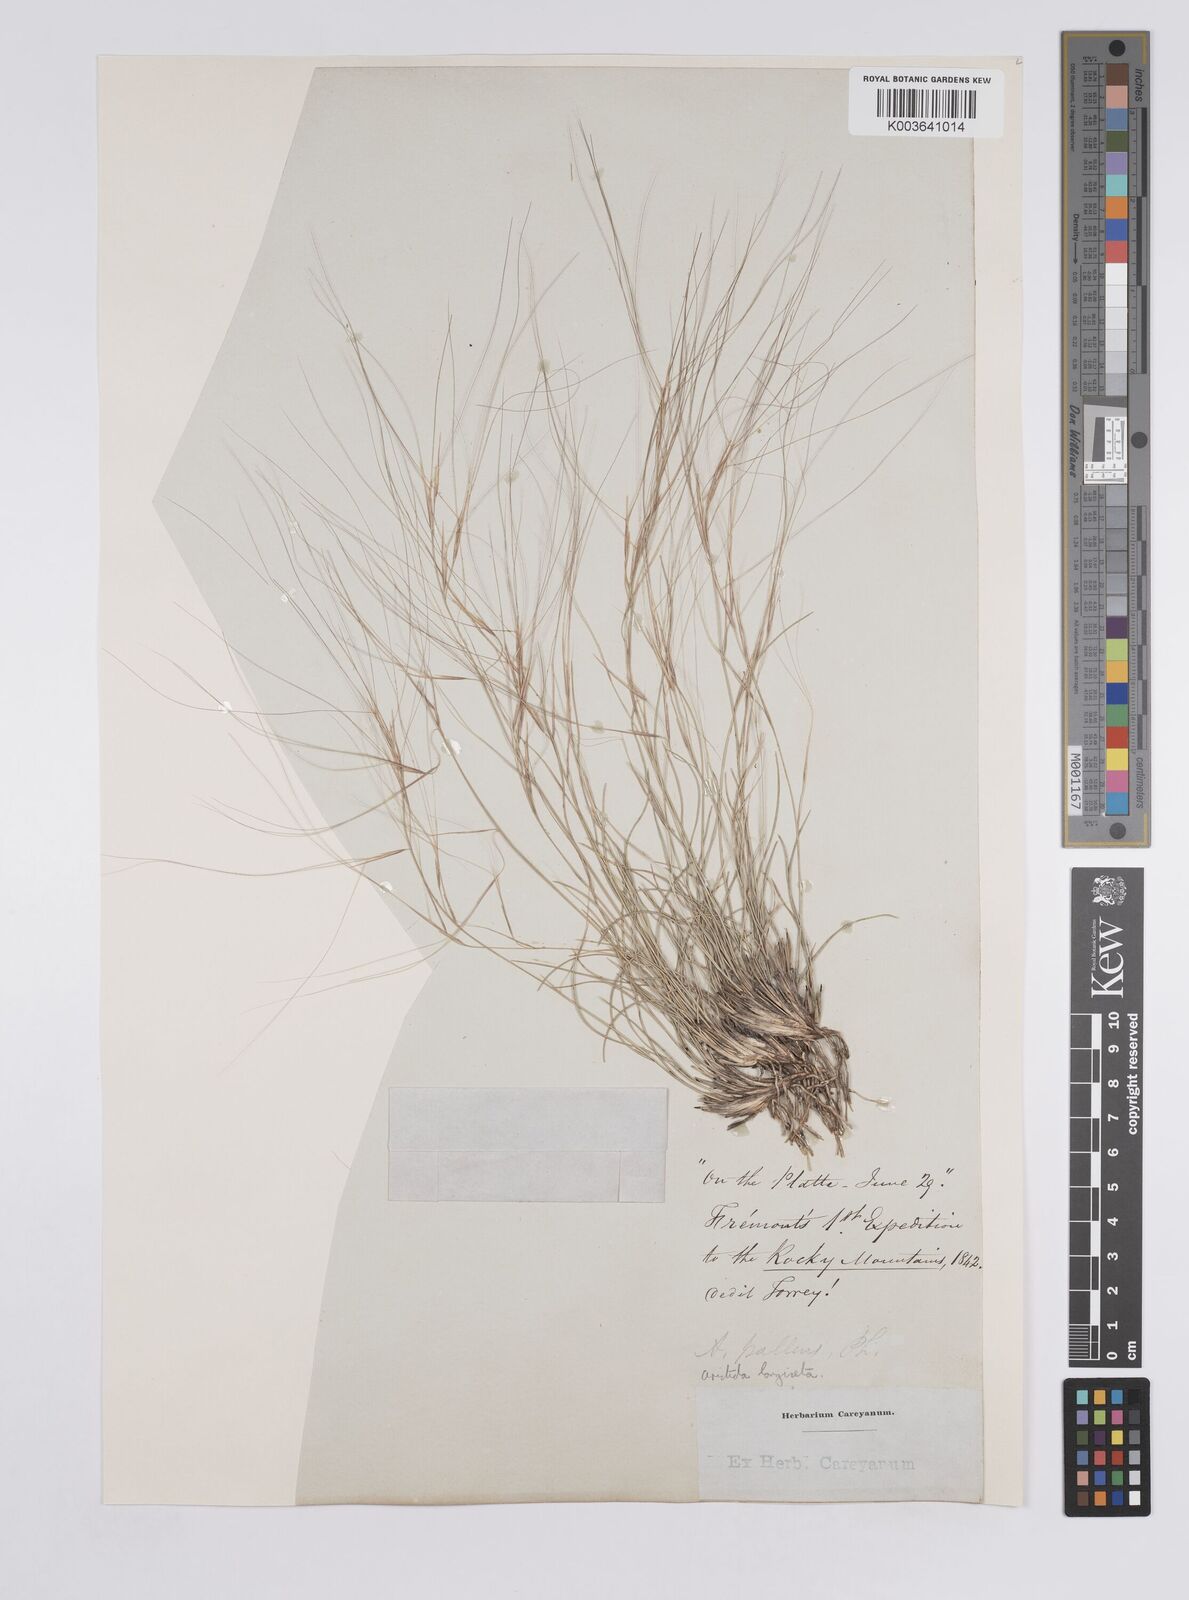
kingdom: Plantae
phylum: Tracheophyta
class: Liliopsida
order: Poales
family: Poaceae
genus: Aristida
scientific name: Aristida purpurea
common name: Purple threeawn
